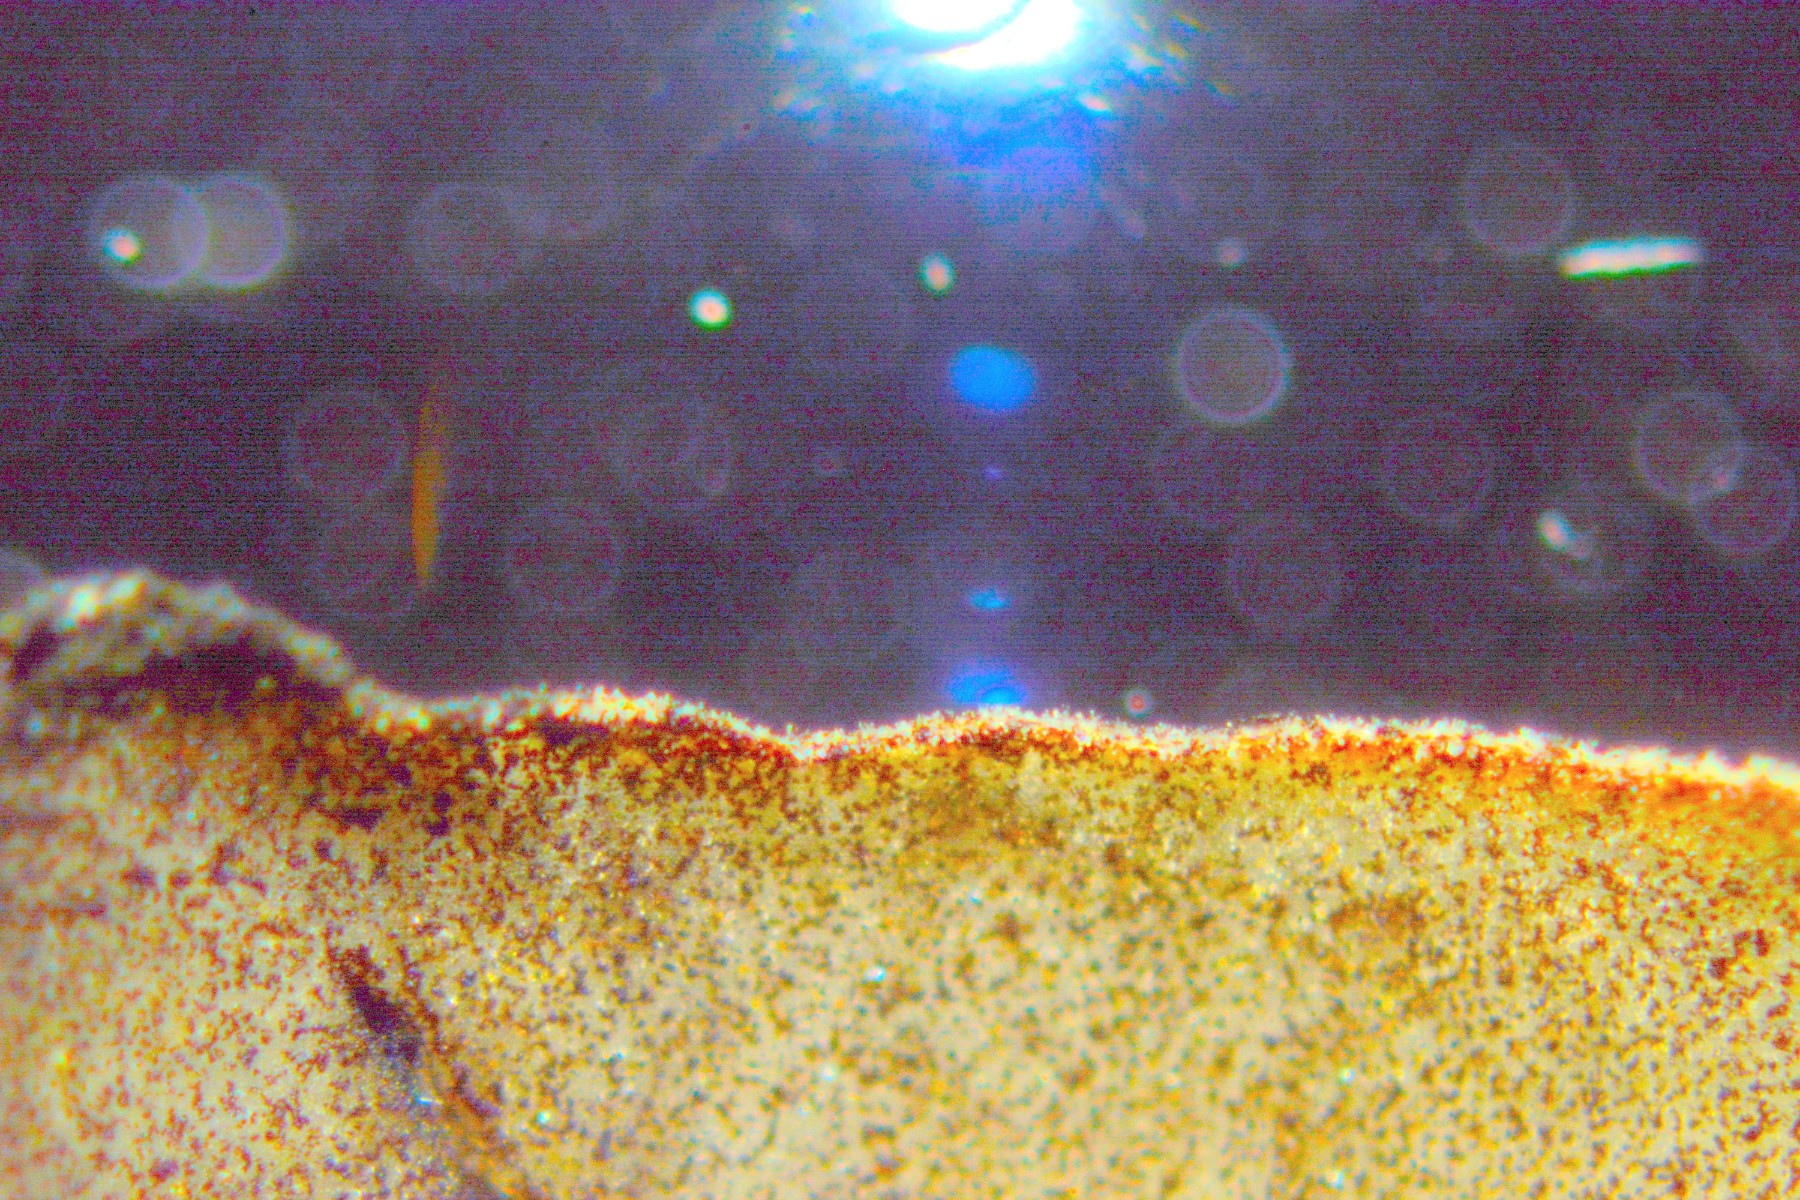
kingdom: Fungi
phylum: Basidiomycota
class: Agaricomycetes
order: Agaricales
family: Psathyrellaceae
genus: Psathyrella
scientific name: Psathyrella corrugis
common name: rødægget mørkhat
